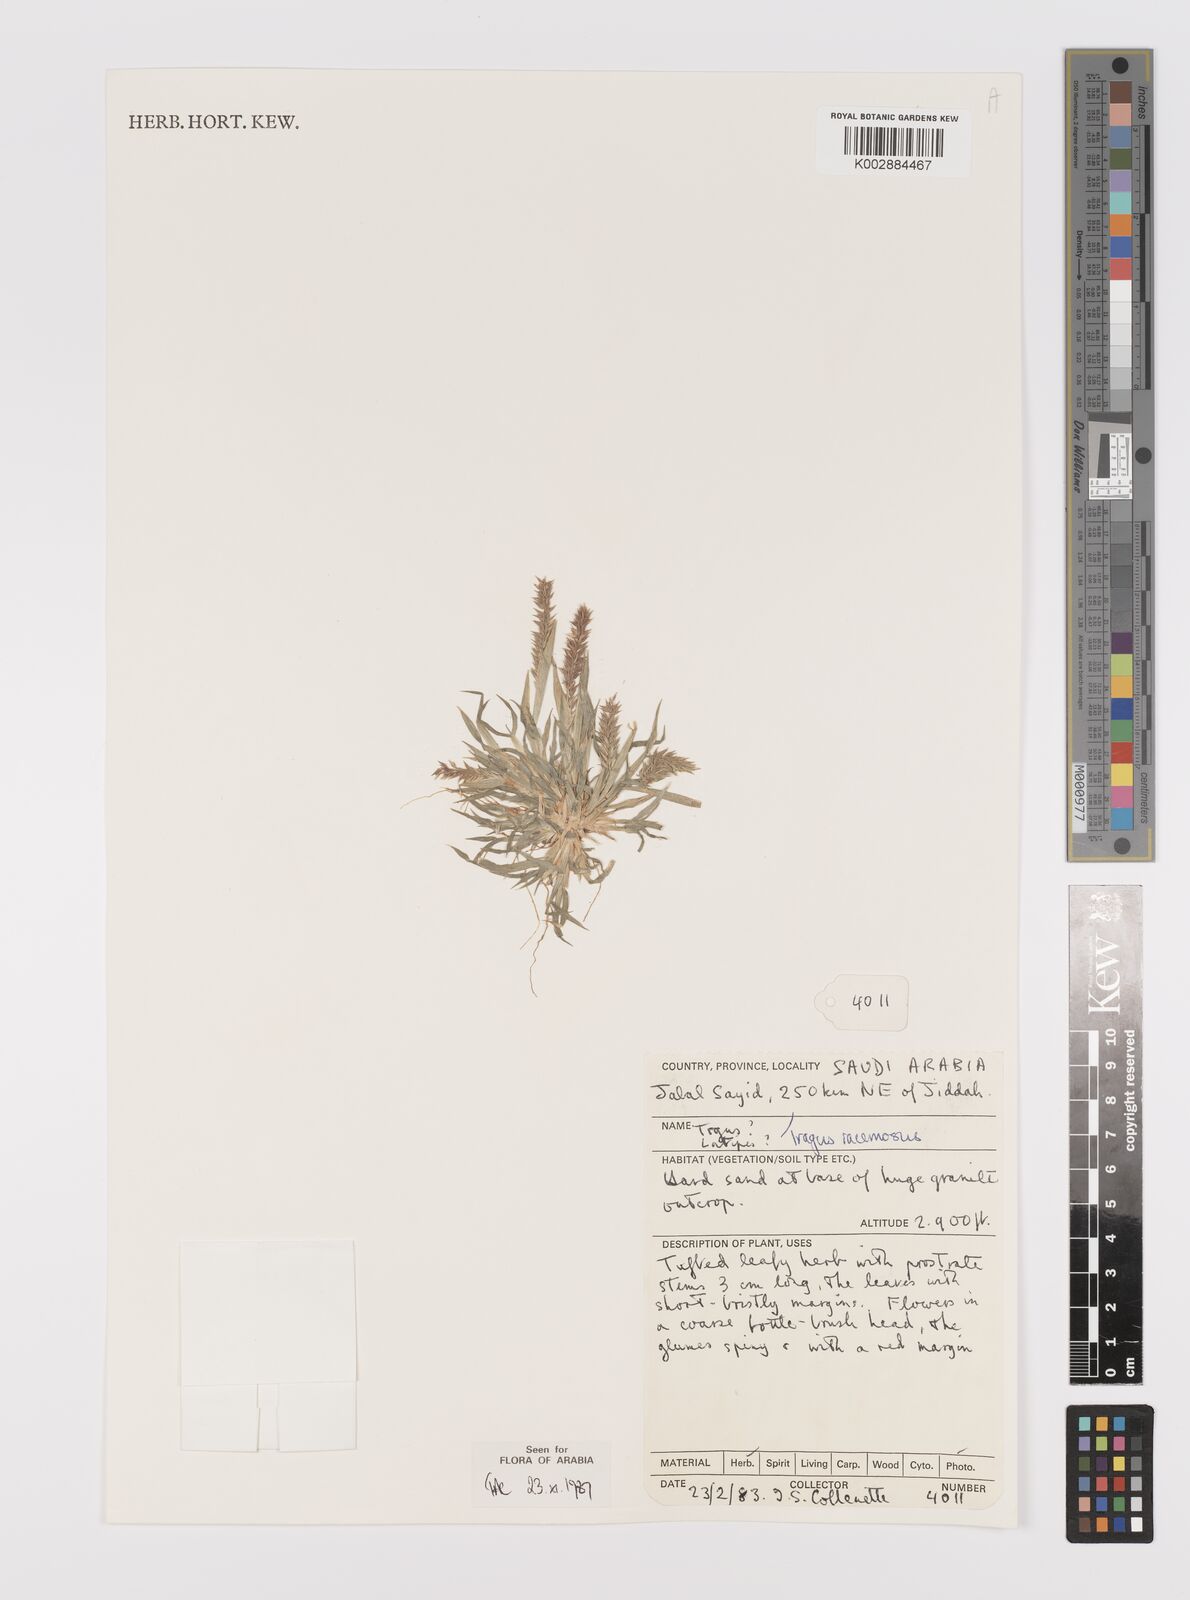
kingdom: Plantae
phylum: Tracheophyta
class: Liliopsida
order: Poales
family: Poaceae
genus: Tragus
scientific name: Tragus racemosus
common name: European bur-grass
